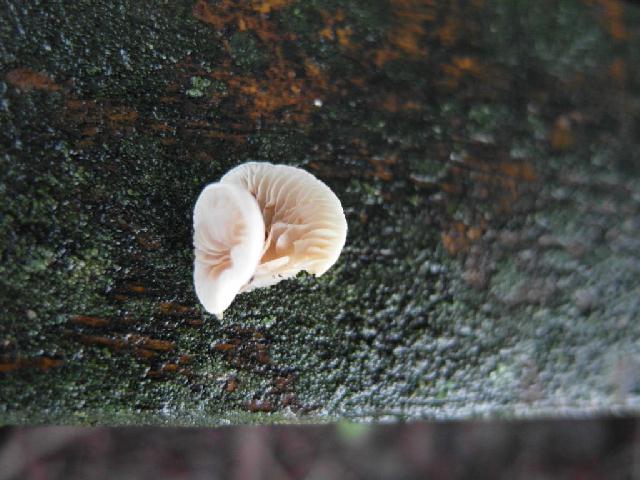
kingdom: Fungi
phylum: Basidiomycota
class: Agaricomycetes
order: Agaricales
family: Crepidotaceae
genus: Crepidotus
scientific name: Crepidotus cesatii
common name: almindelig muslingesvamp
